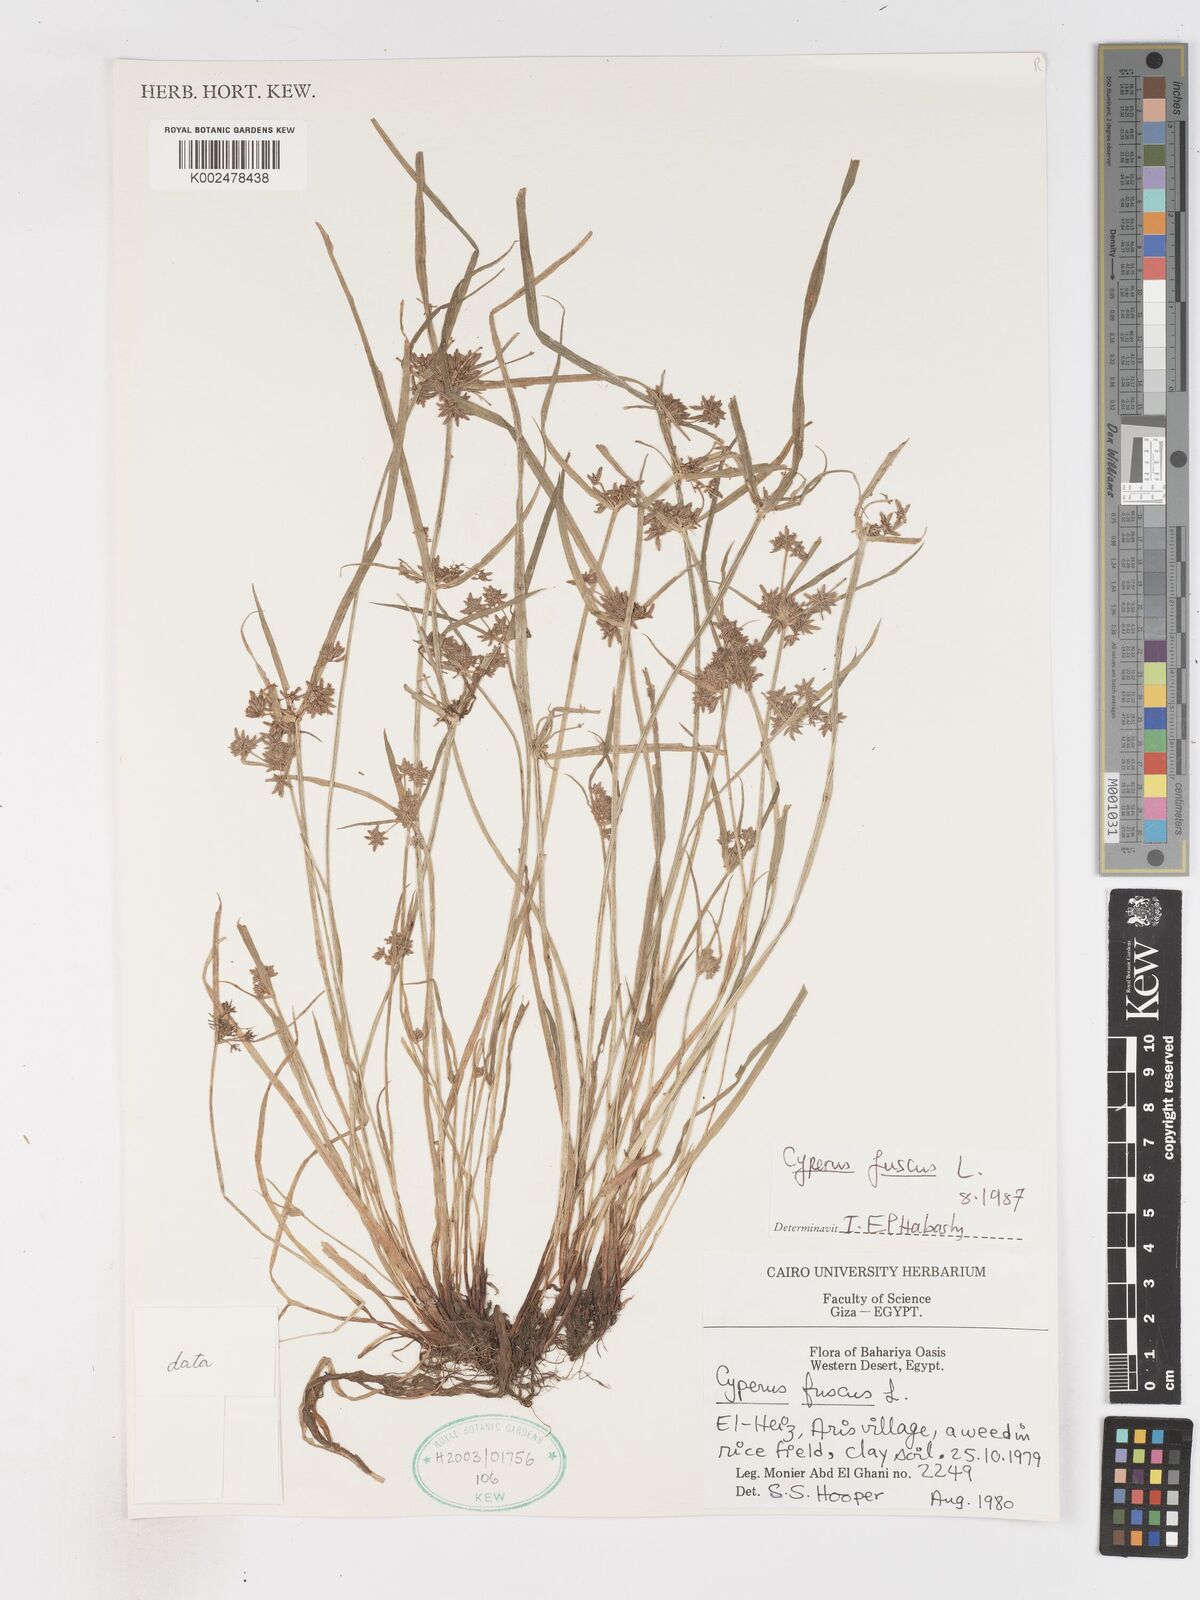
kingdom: Plantae
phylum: Tracheophyta
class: Liliopsida
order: Poales
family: Cyperaceae
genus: Cyperus
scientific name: Cyperus fuscus
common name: Brown galingale
